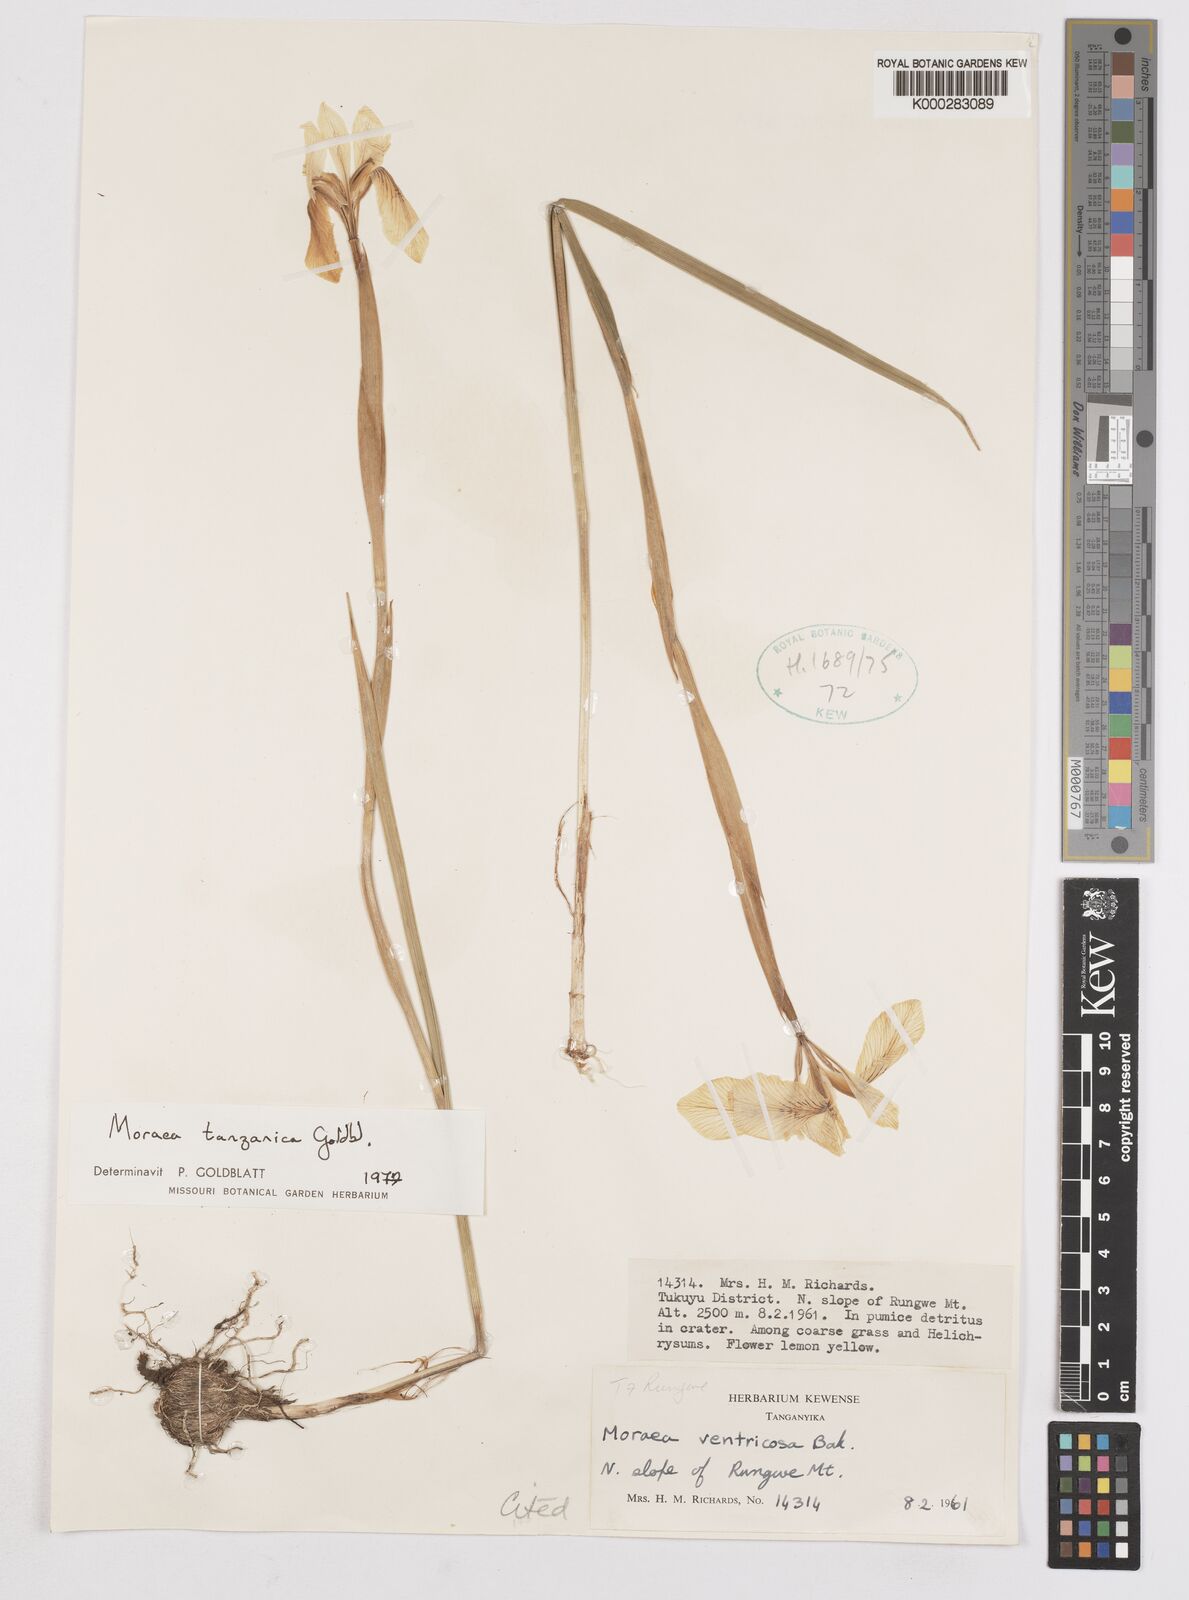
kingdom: Plantae
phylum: Tracheophyta
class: Liliopsida
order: Asparagales
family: Iridaceae
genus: Moraea
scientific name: Moraea tanzanica
